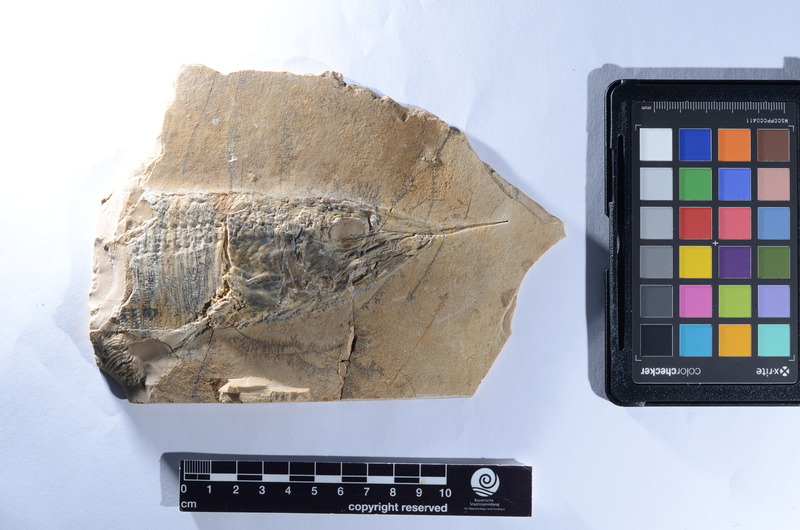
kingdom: Animalia
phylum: Chordata
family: Aspidorhynchidae
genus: Aspidorhynchus
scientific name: Aspidorhynchus
